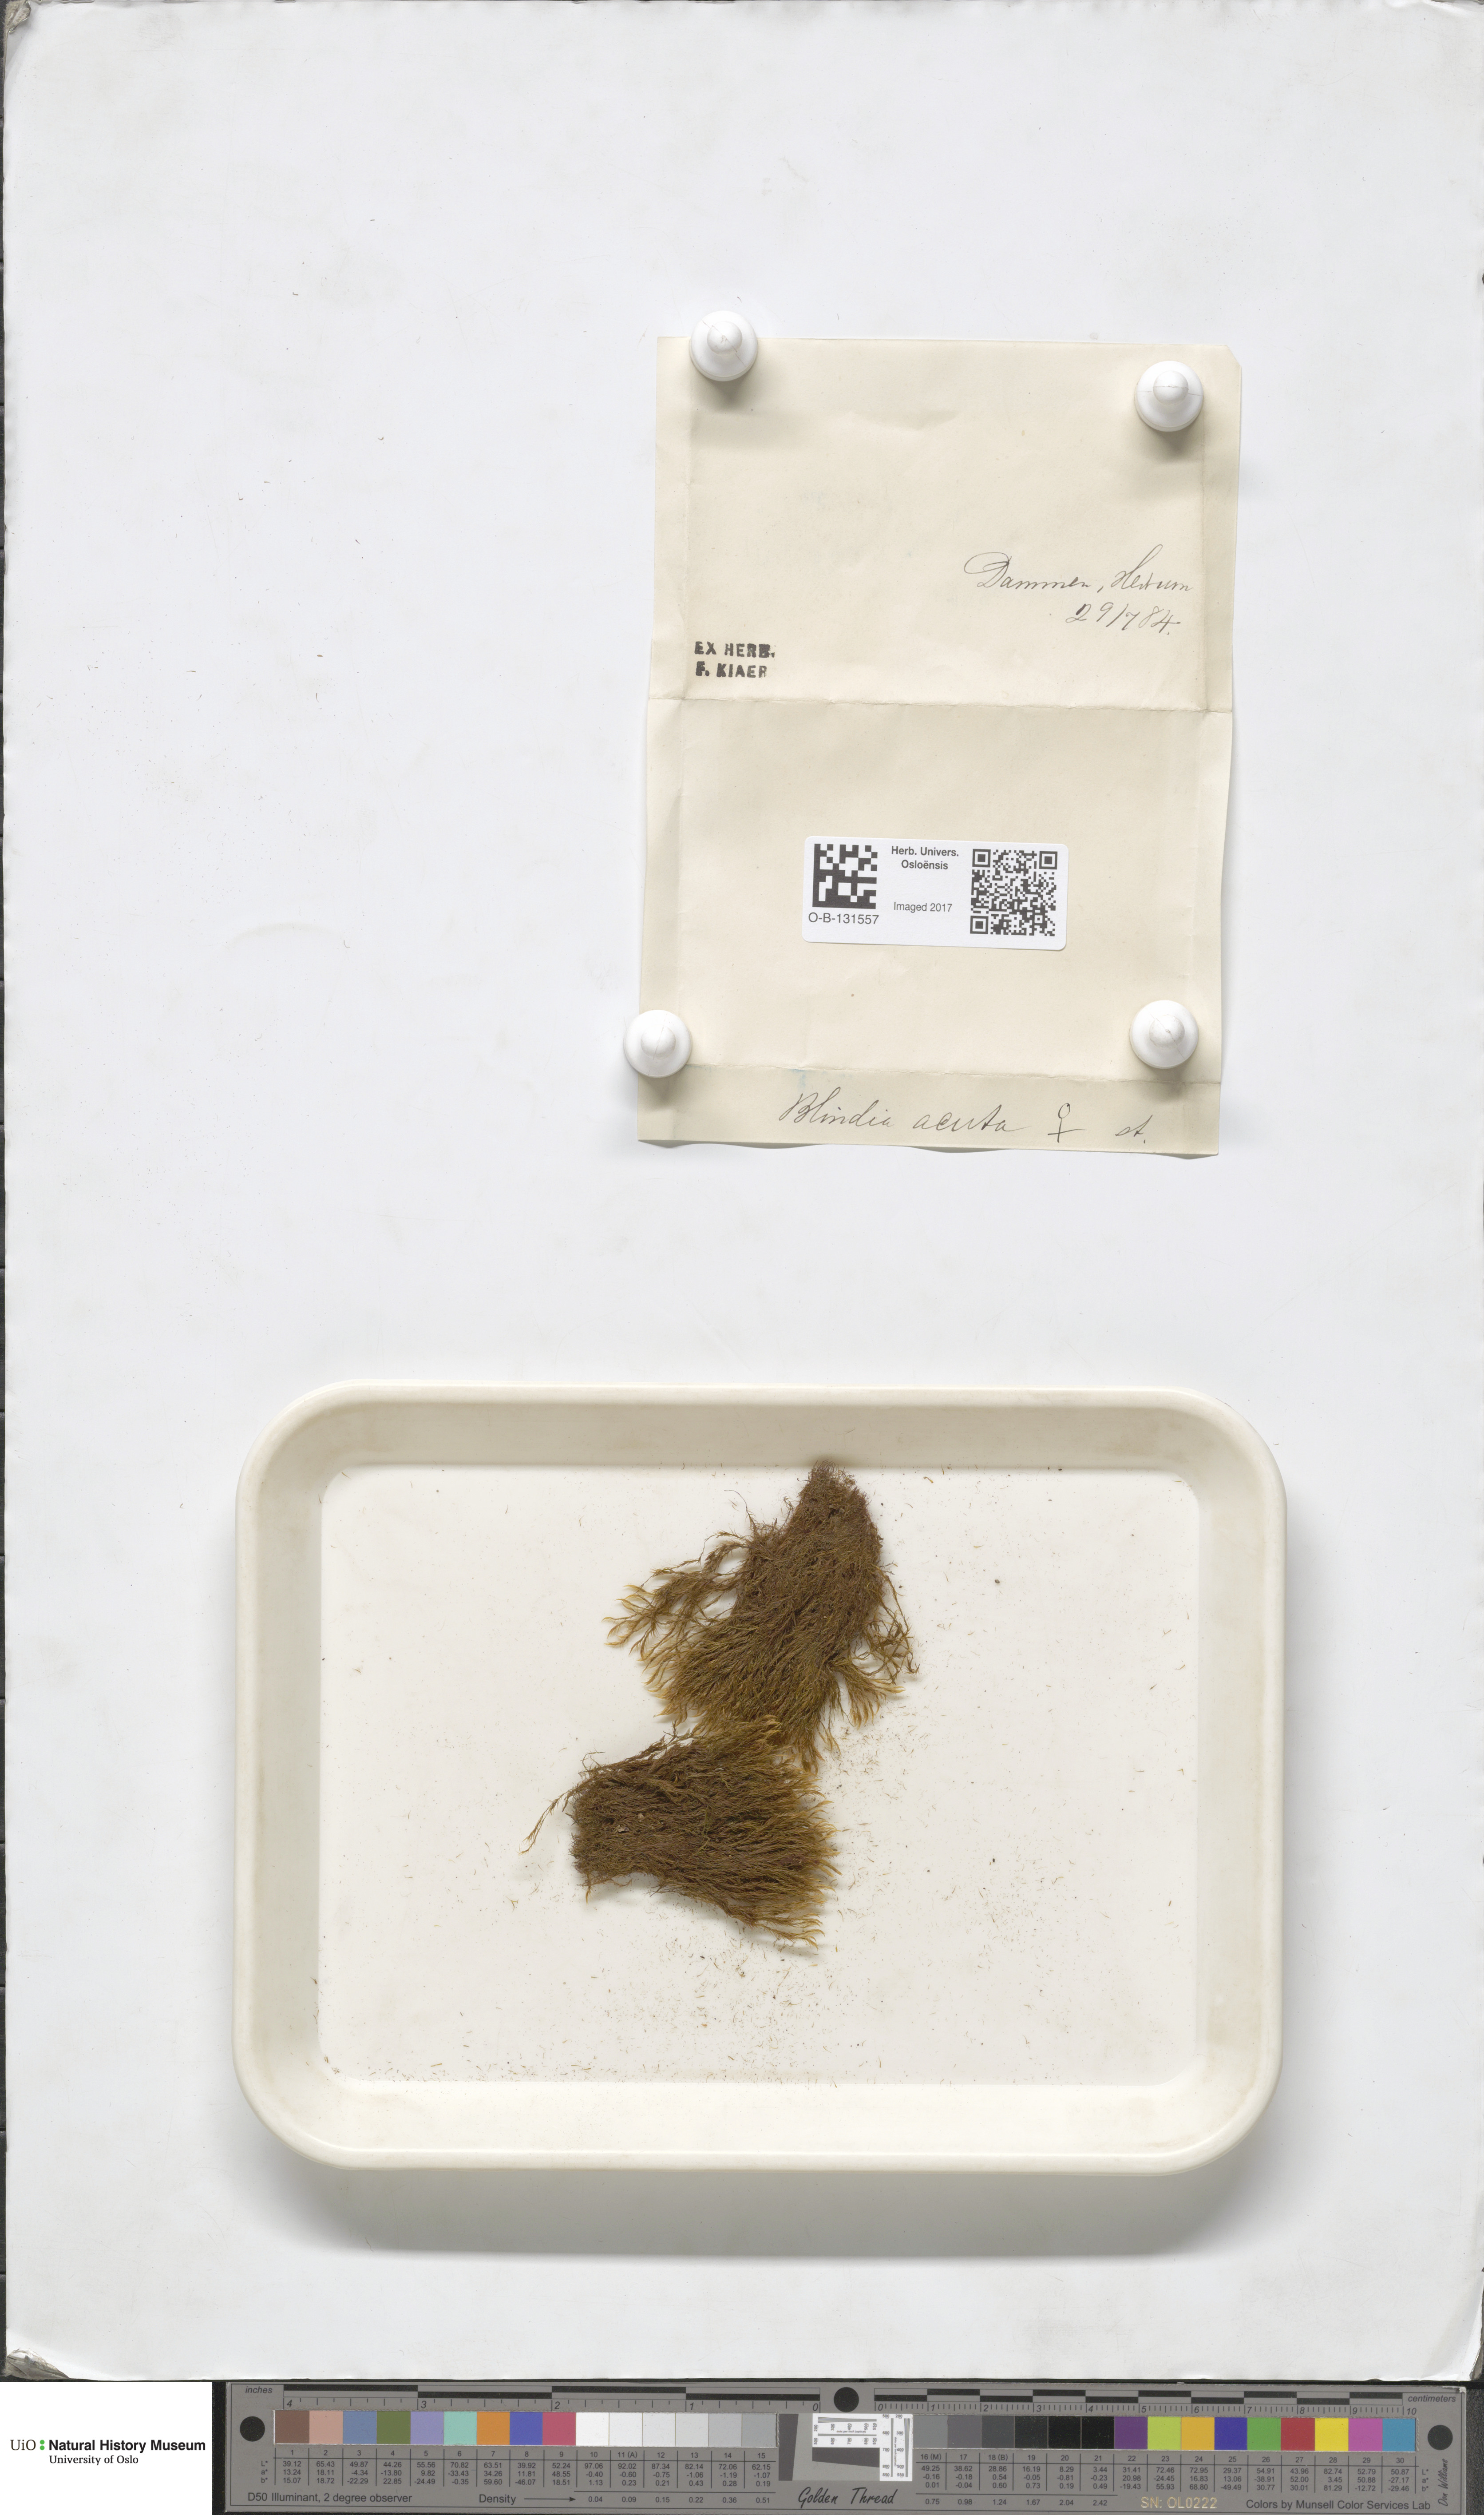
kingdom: Plantae
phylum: Bryophyta
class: Bryopsida
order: Grimmiales
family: Seligeriaceae
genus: Blindia
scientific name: Blindia acuta
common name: Sharp-leaved blind's moss
